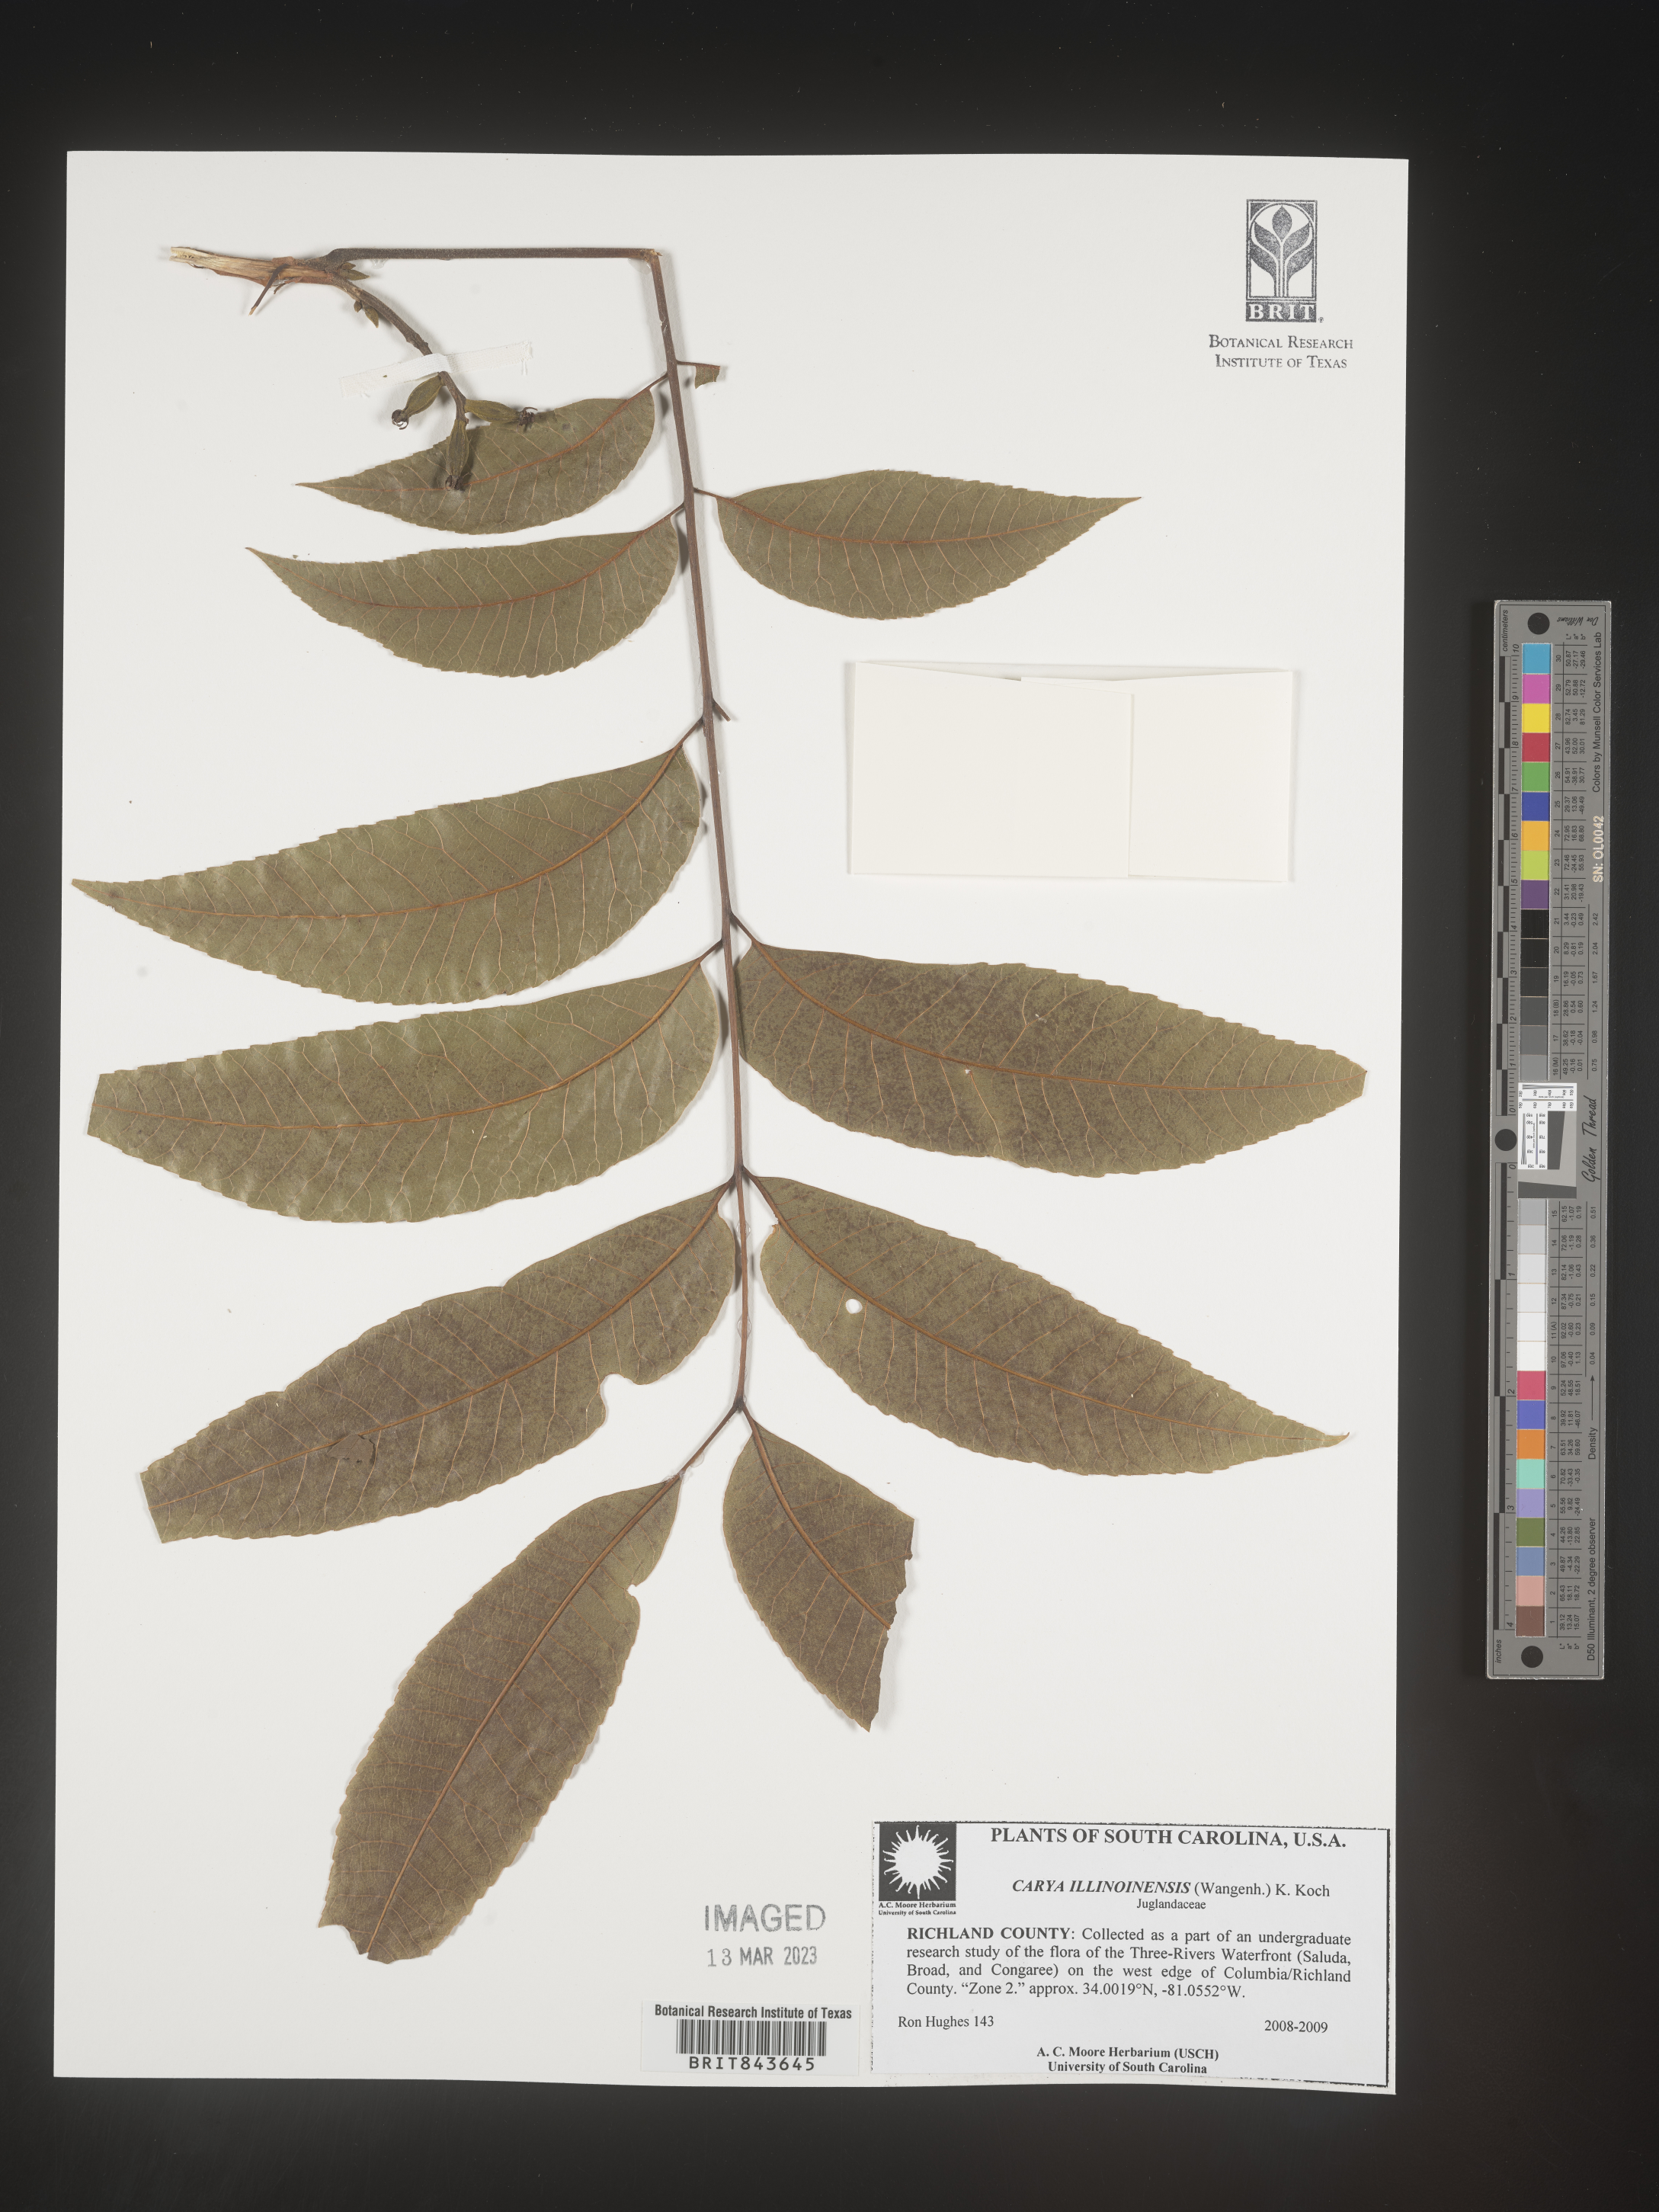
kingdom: Plantae
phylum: Tracheophyta
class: Magnoliopsida
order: Fagales
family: Juglandaceae
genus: Carya
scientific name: Carya illinoinensis
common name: Pecan
